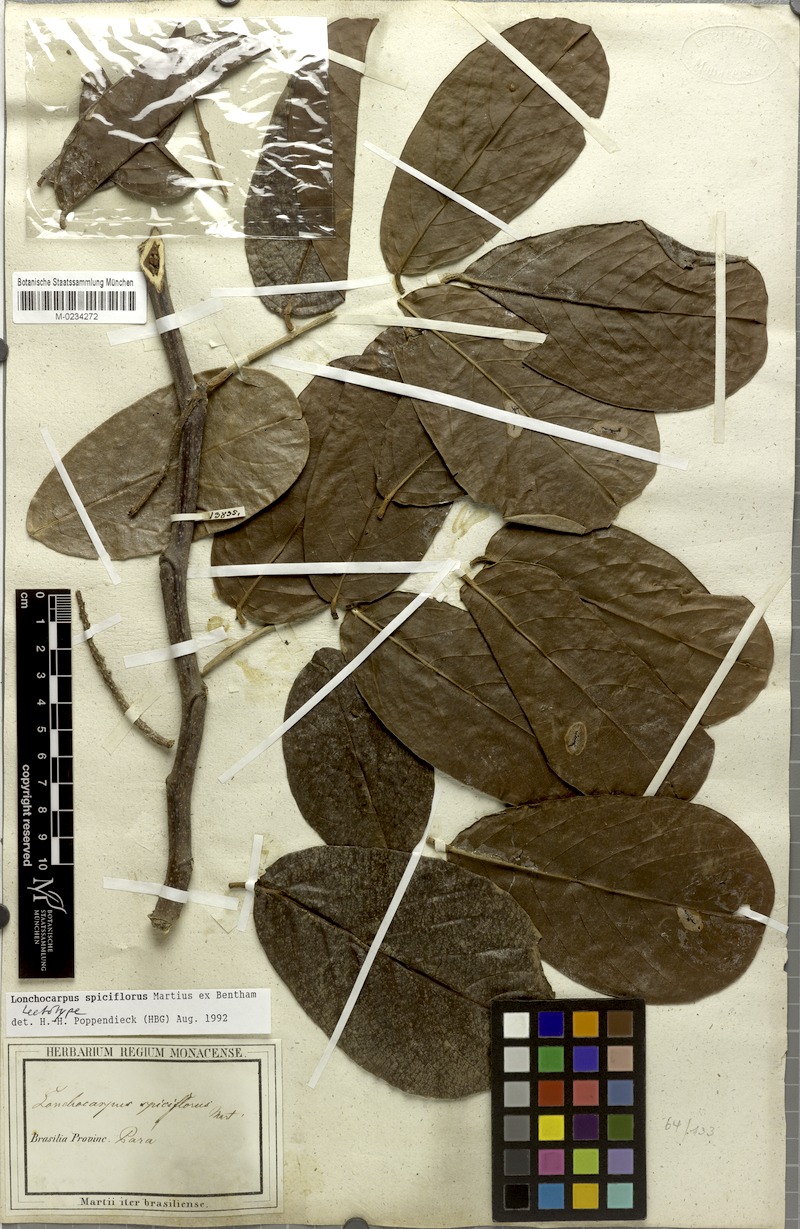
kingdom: Plantae
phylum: Tracheophyta
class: Magnoliopsida
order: Fabales
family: Fabaceae
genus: Lonchocarpus
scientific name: Lonchocarpus spiciflorus
